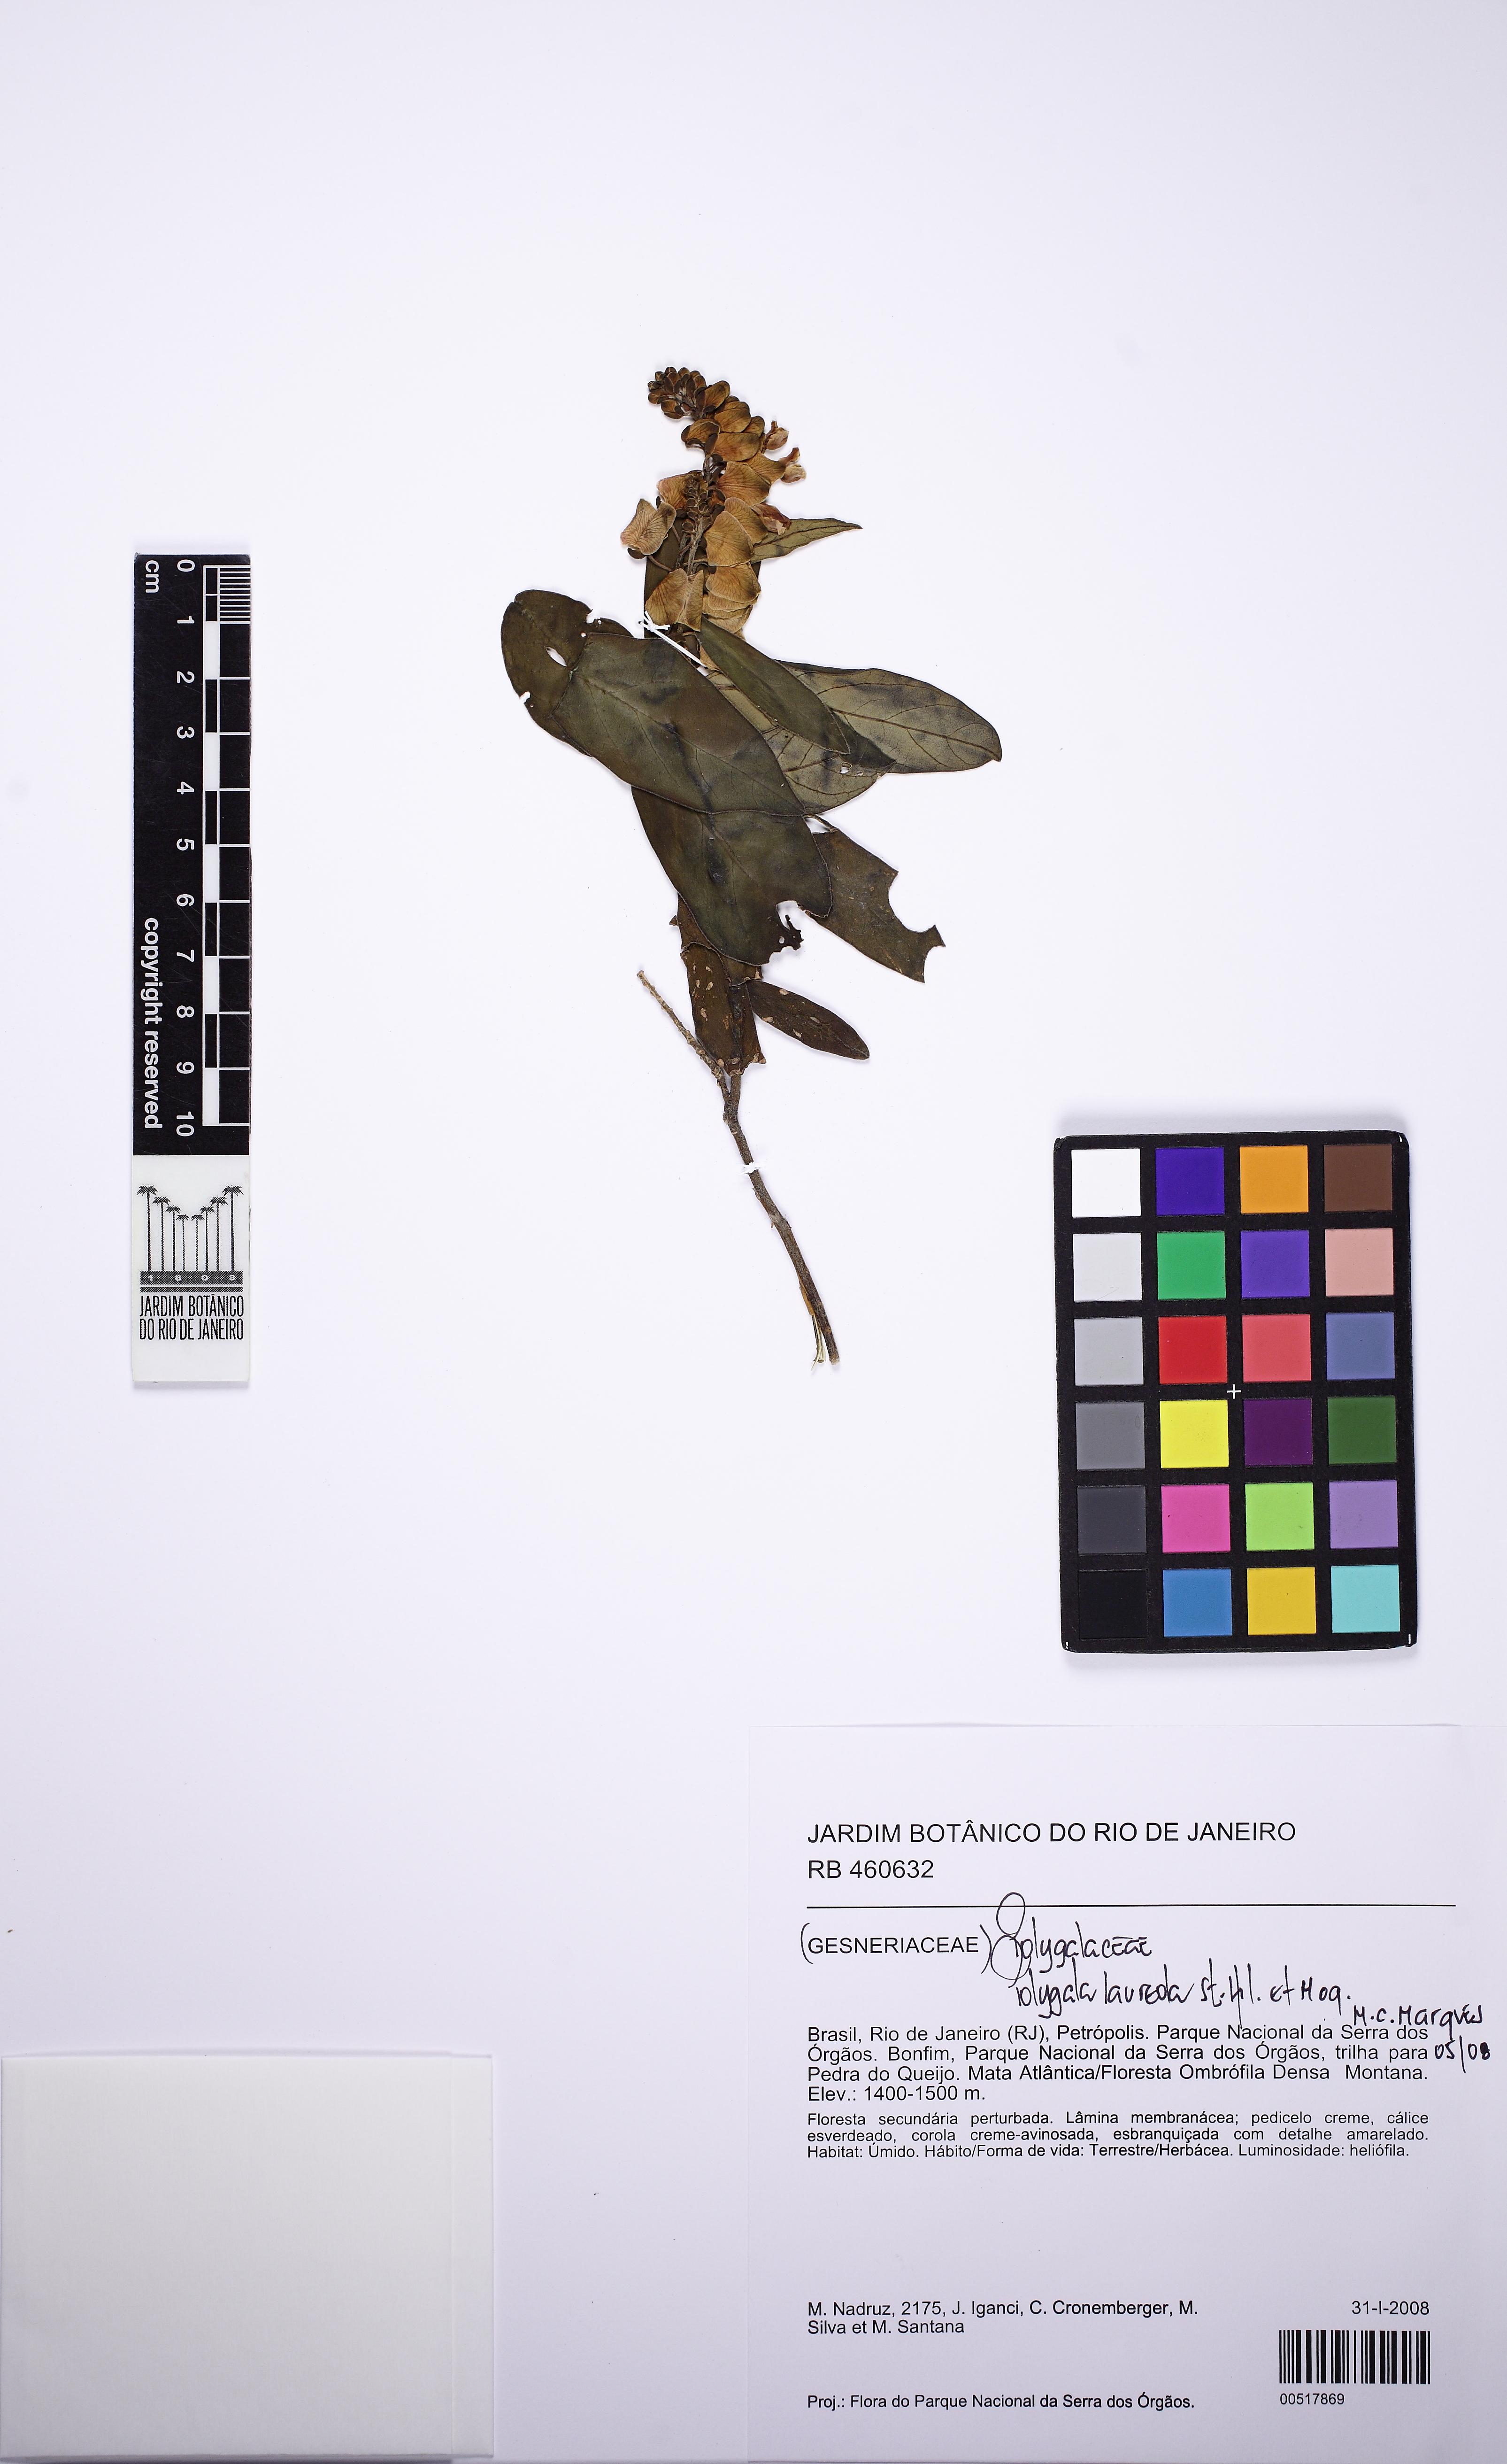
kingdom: Plantae
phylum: Tracheophyta
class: Magnoliopsida
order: Fabales
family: Polygalaceae
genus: Caamembeca
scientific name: Caamembeca salicifolia
